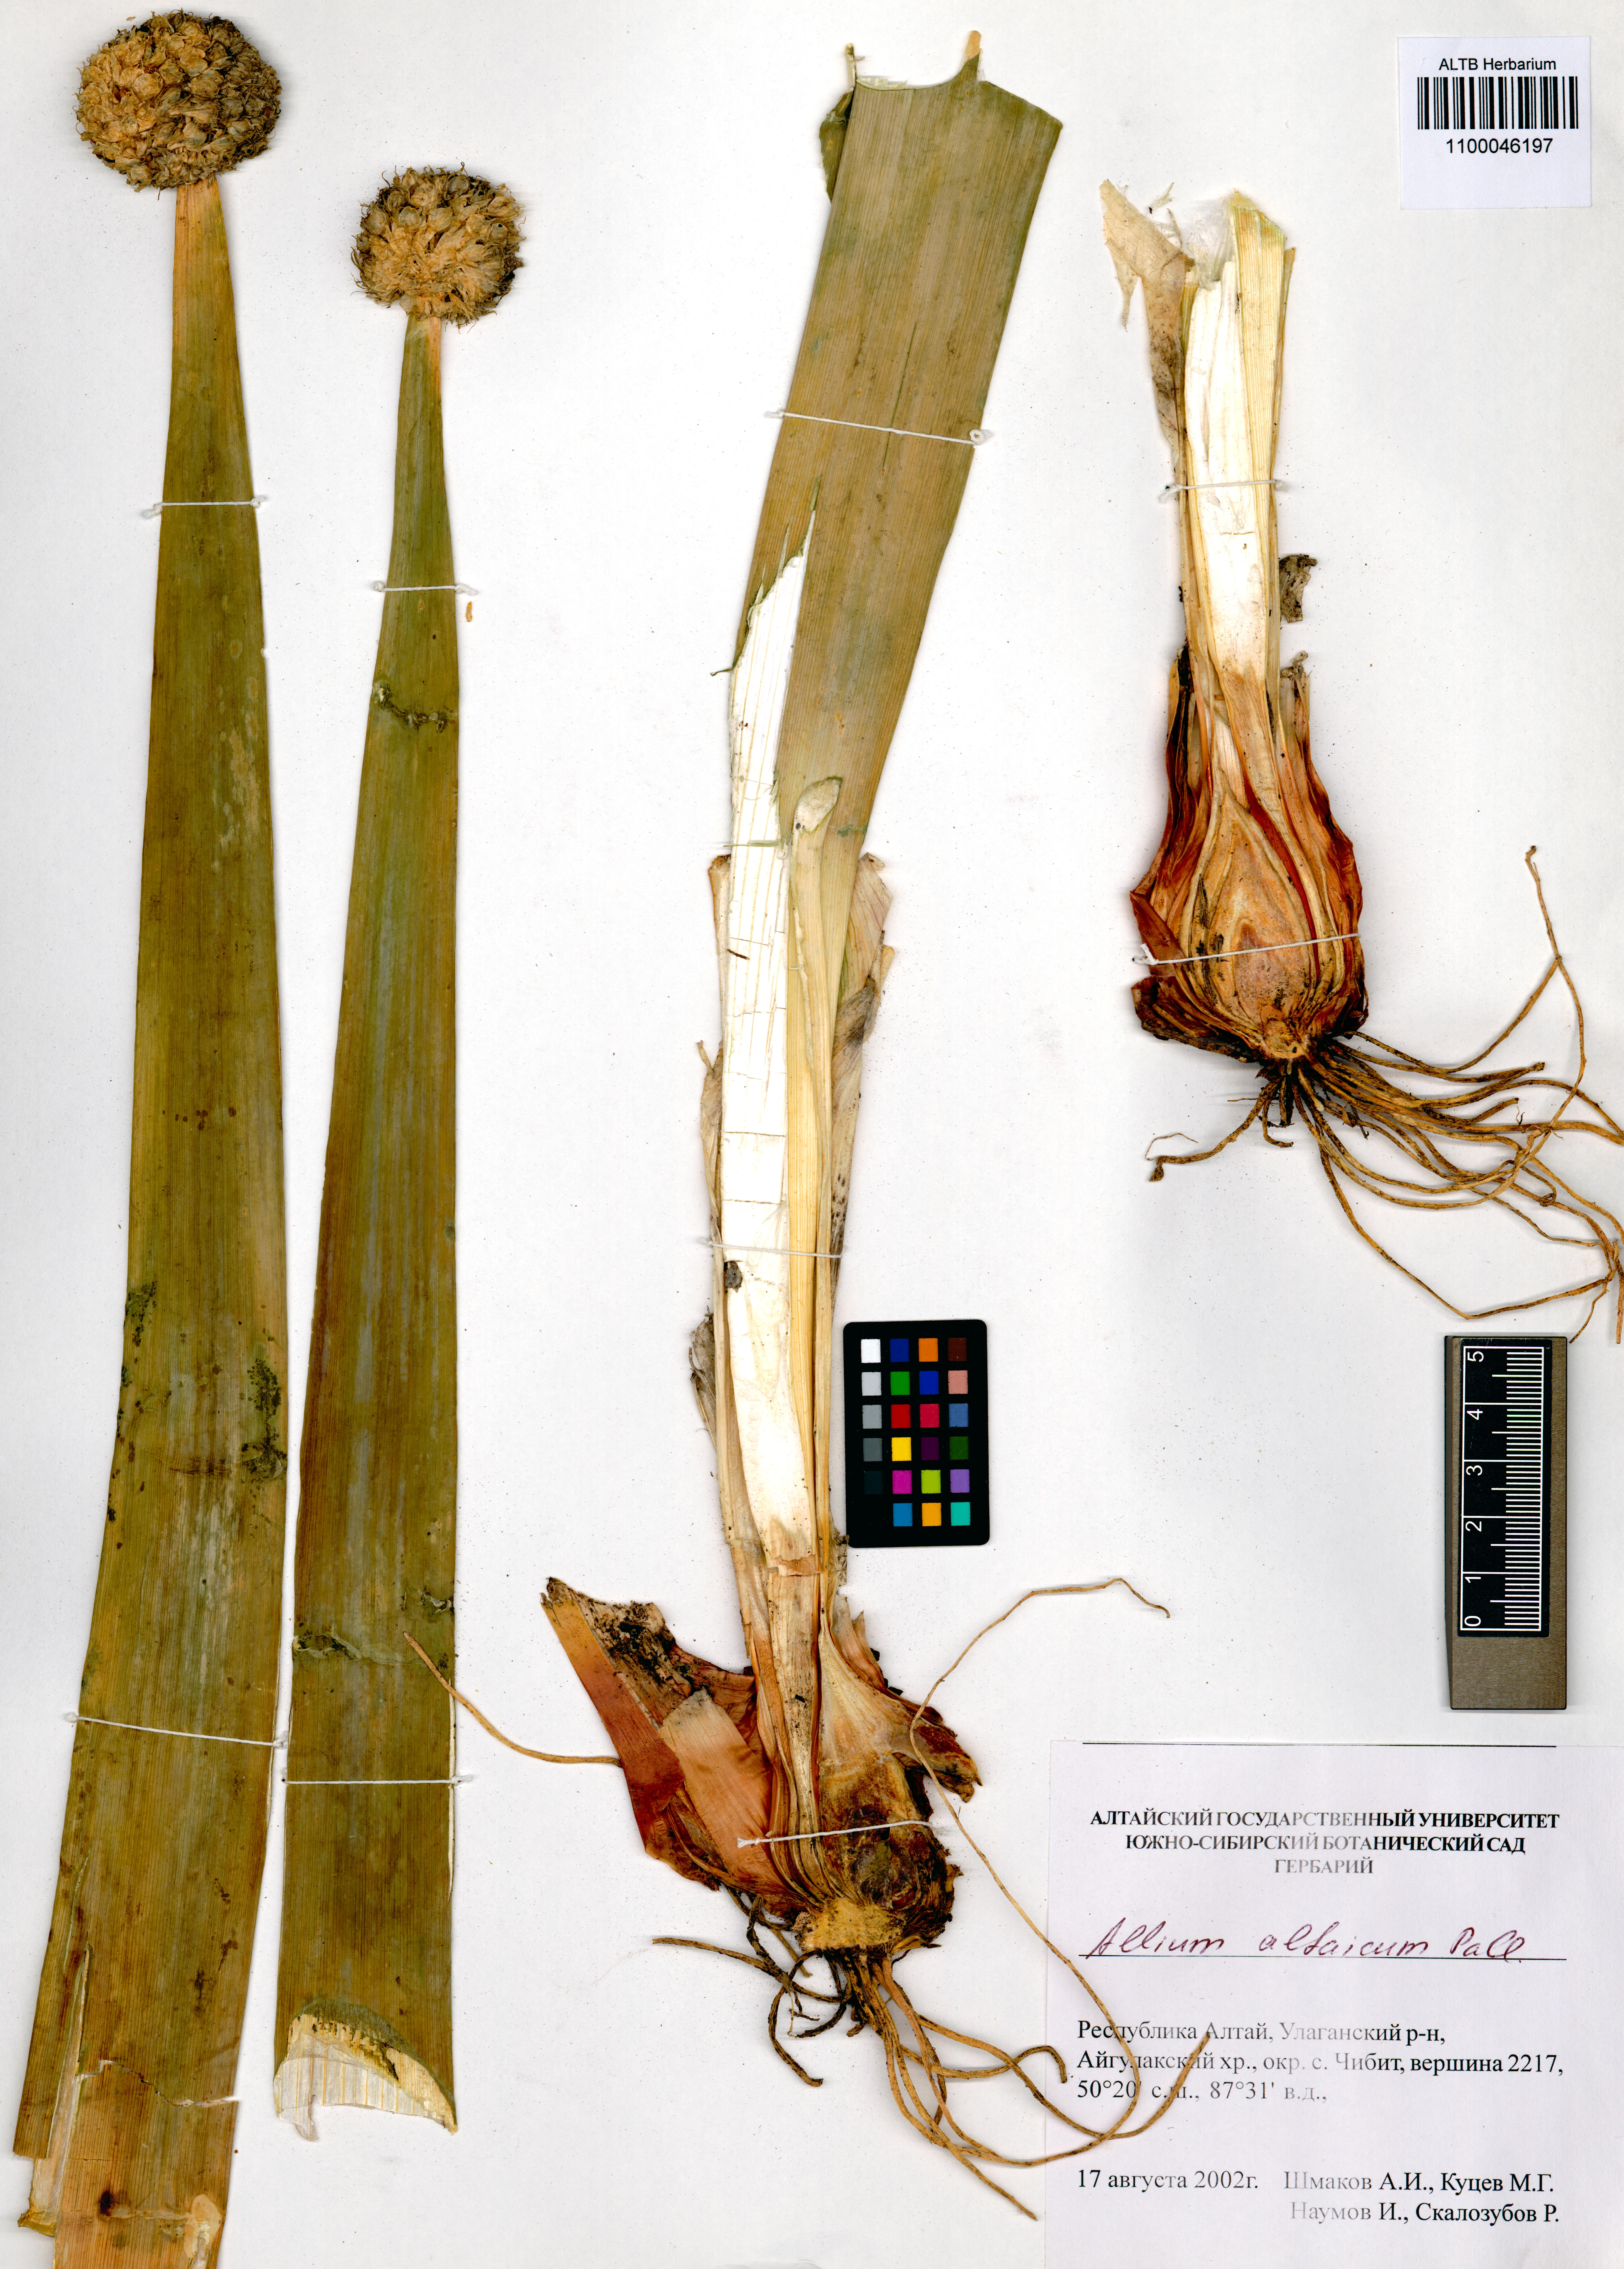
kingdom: Plantae
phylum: Tracheophyta
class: Liliopsida
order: Asparagales
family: Amaryllidaceae
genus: Allium
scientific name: Allium altaicum
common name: Altai onion
